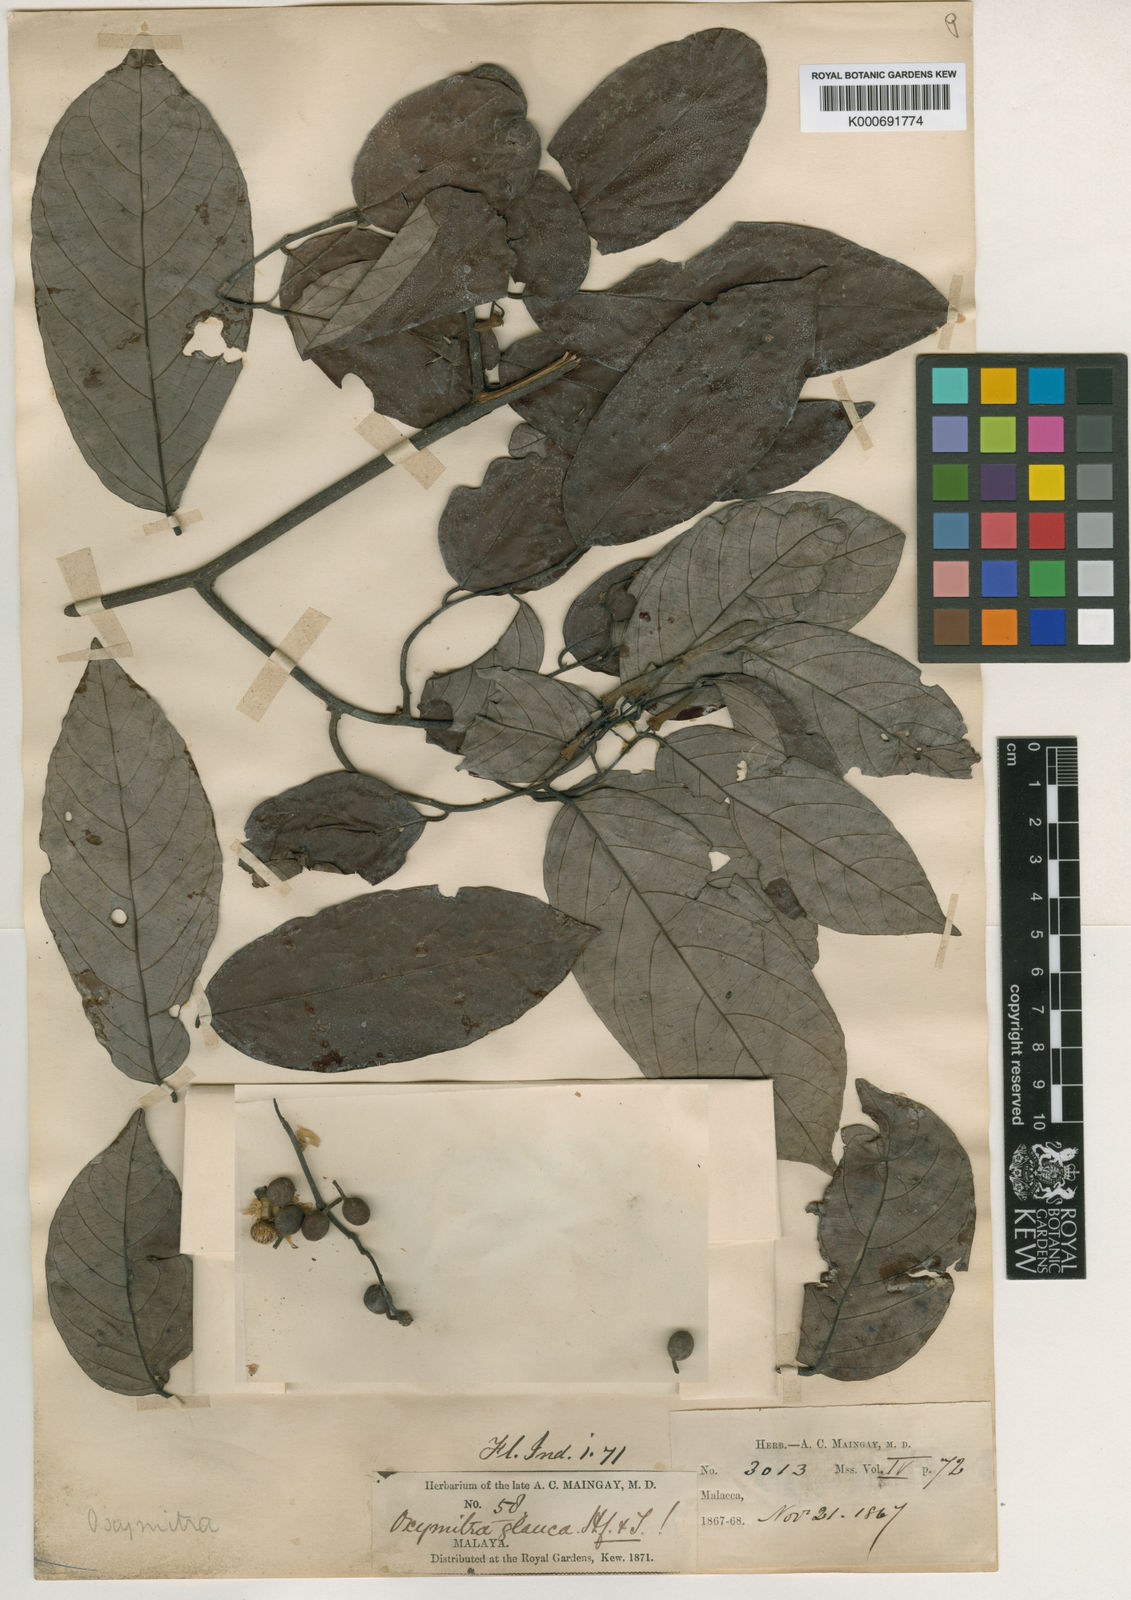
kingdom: Plantae
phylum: Tracheophyta
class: Magnoliopsida
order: Magnoliales
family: Annonaceae
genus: Friesodielsia
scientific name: Friesodielsia glauca
